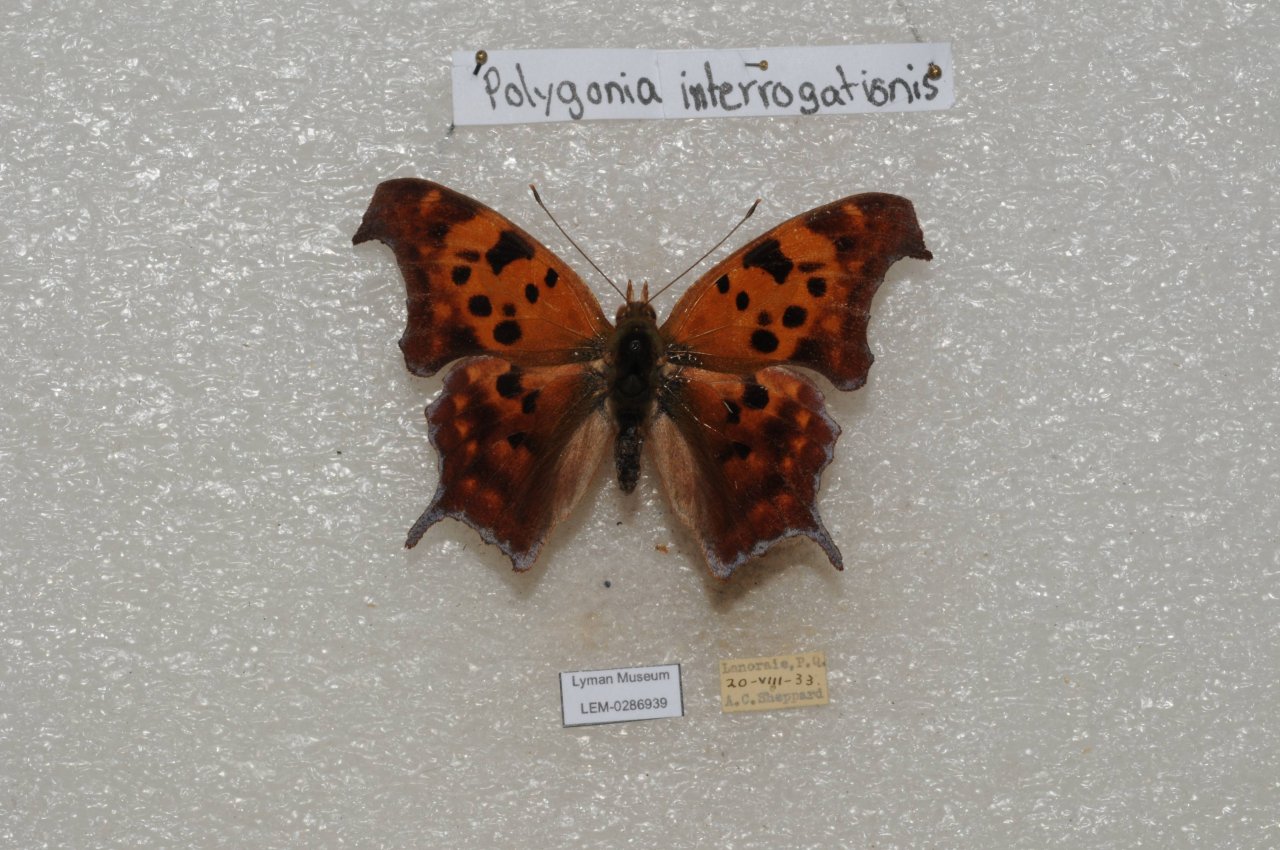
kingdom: Animalia
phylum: Arthropoda
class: Insecta
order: Lepidoptera
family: Nymphalidae
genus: Polygonia
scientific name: Polygonia interrogationis
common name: Question Mark
